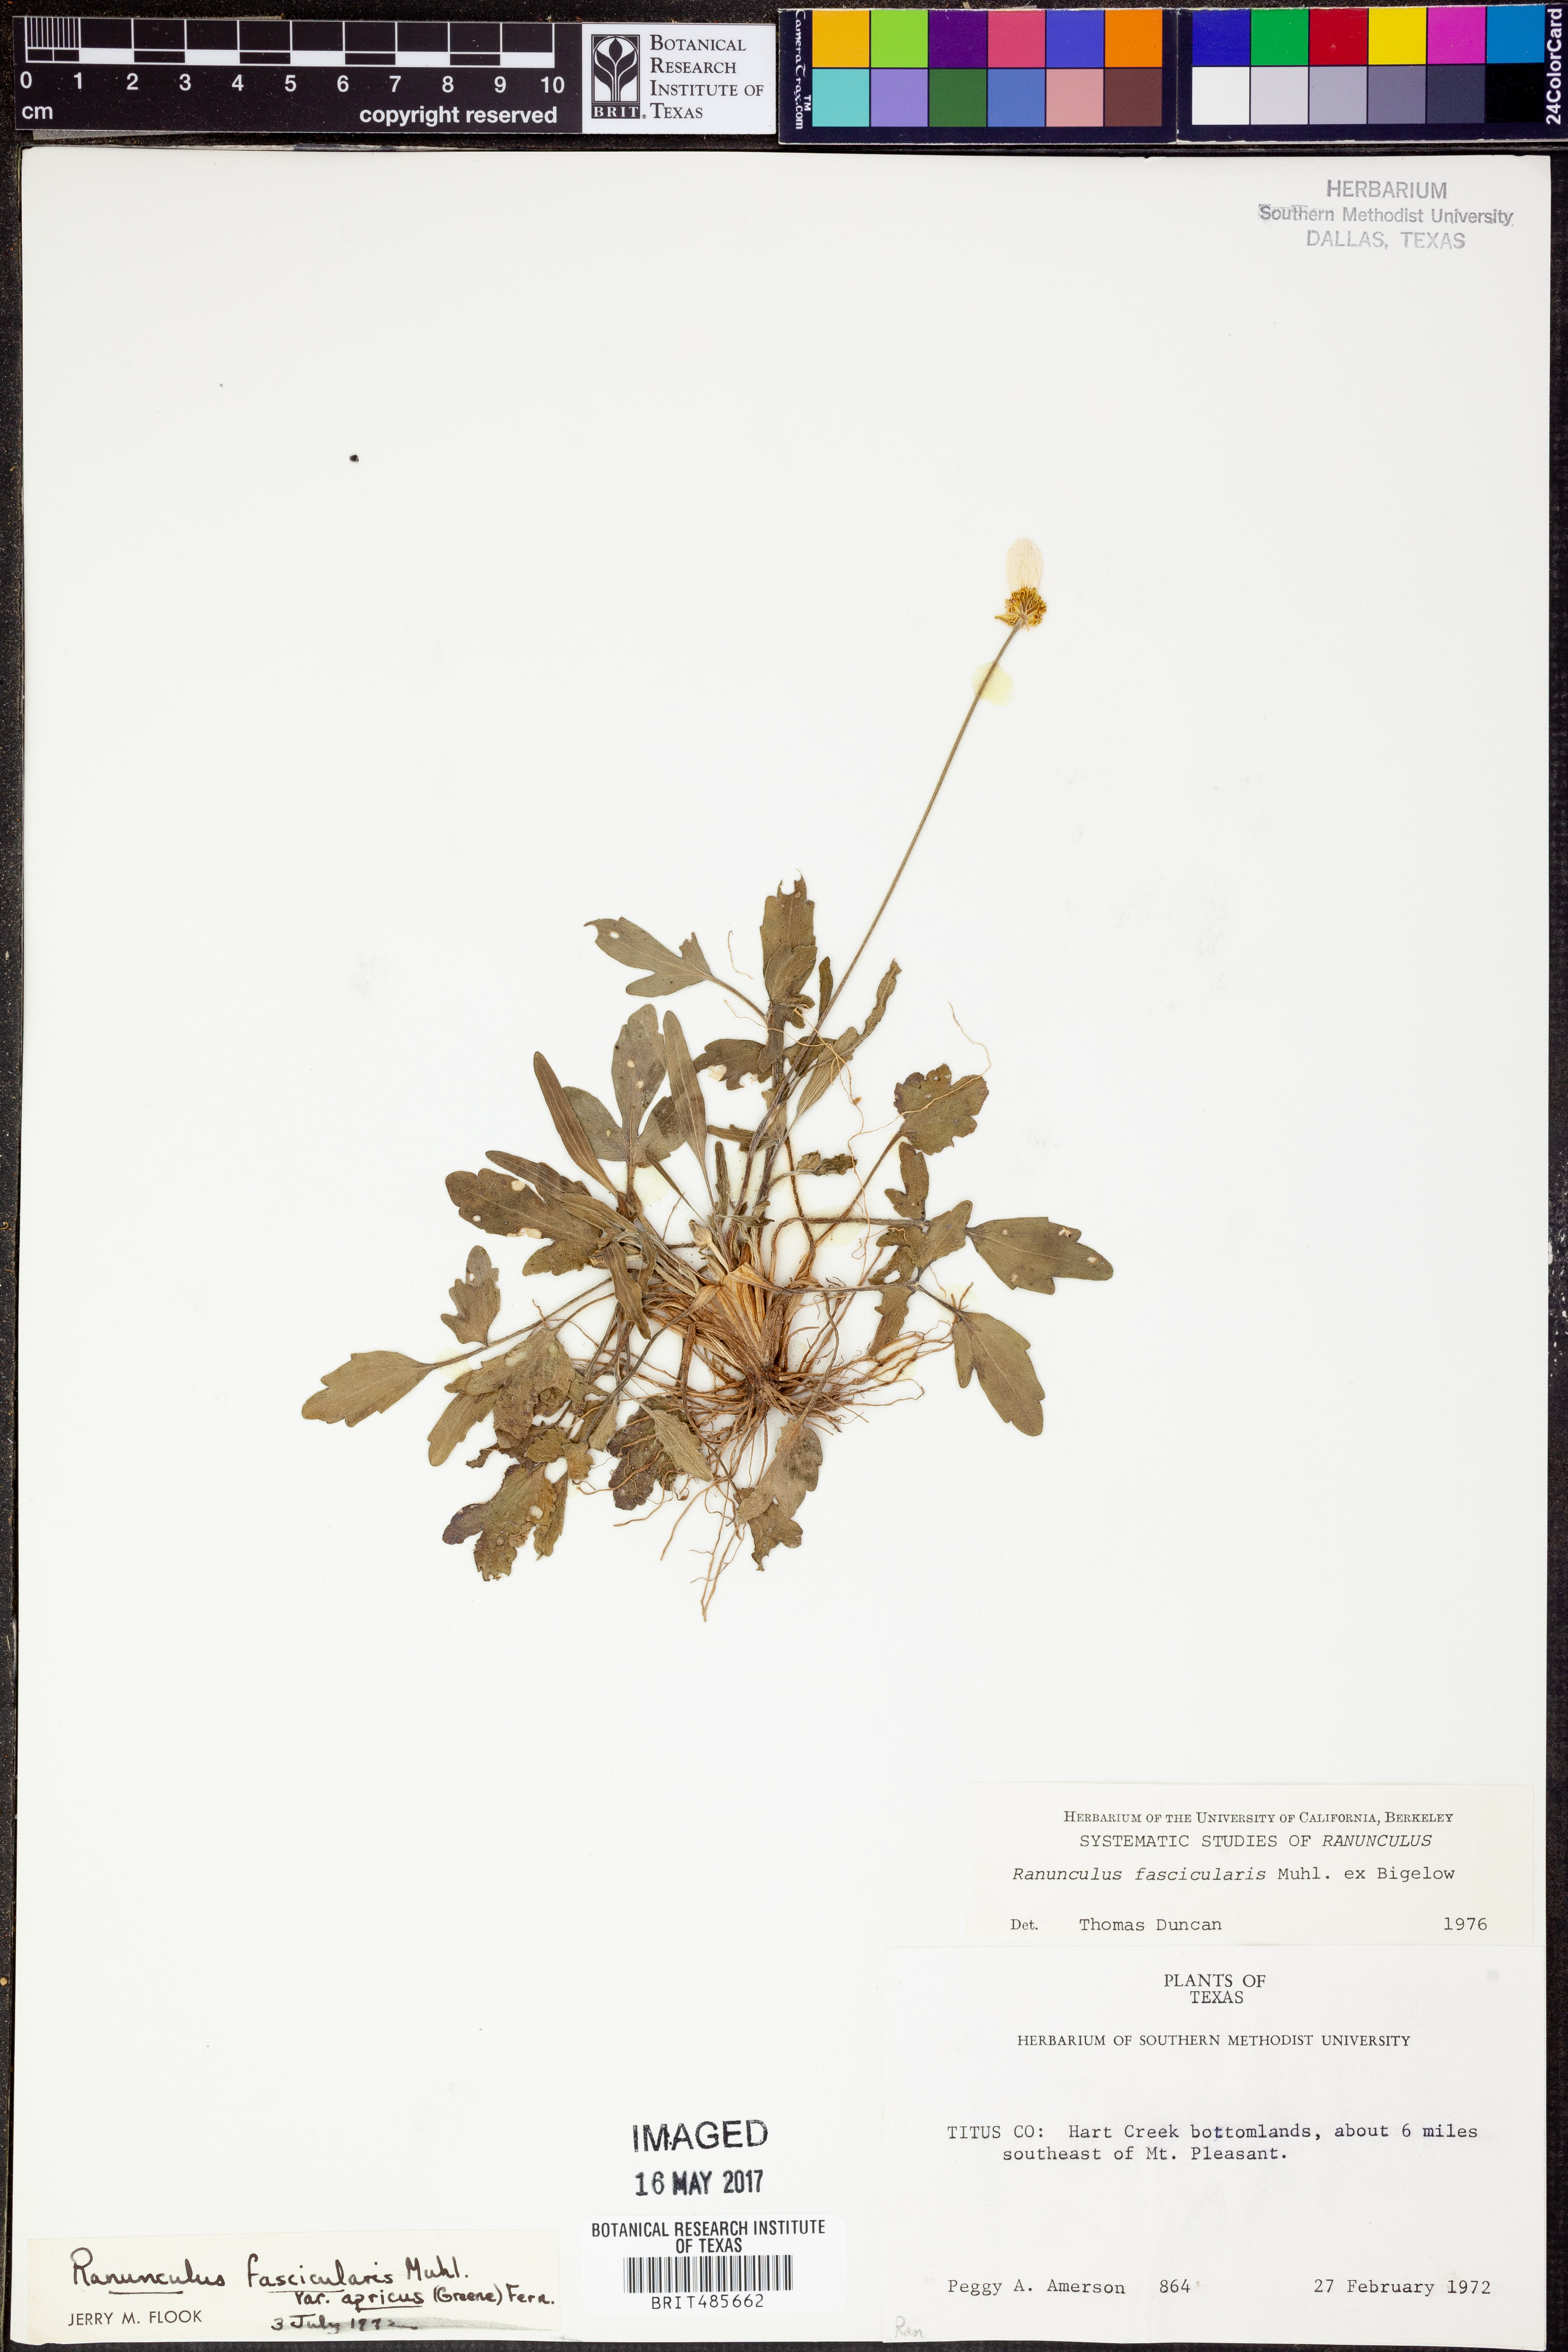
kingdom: Plantae
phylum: Tracheophyta
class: Magnoliopsida
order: Ranunculales
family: Ranunculaceae
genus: Ranunculus
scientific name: Ranunculus fascicularis
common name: Early buttercup
